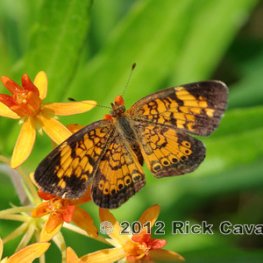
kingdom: Animalia
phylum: Arthropoda
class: Insecta
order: Lepidoptera
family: Nymphalidae
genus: Phyciodes
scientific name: Phyciodes tharos
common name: Pearl Crescent
